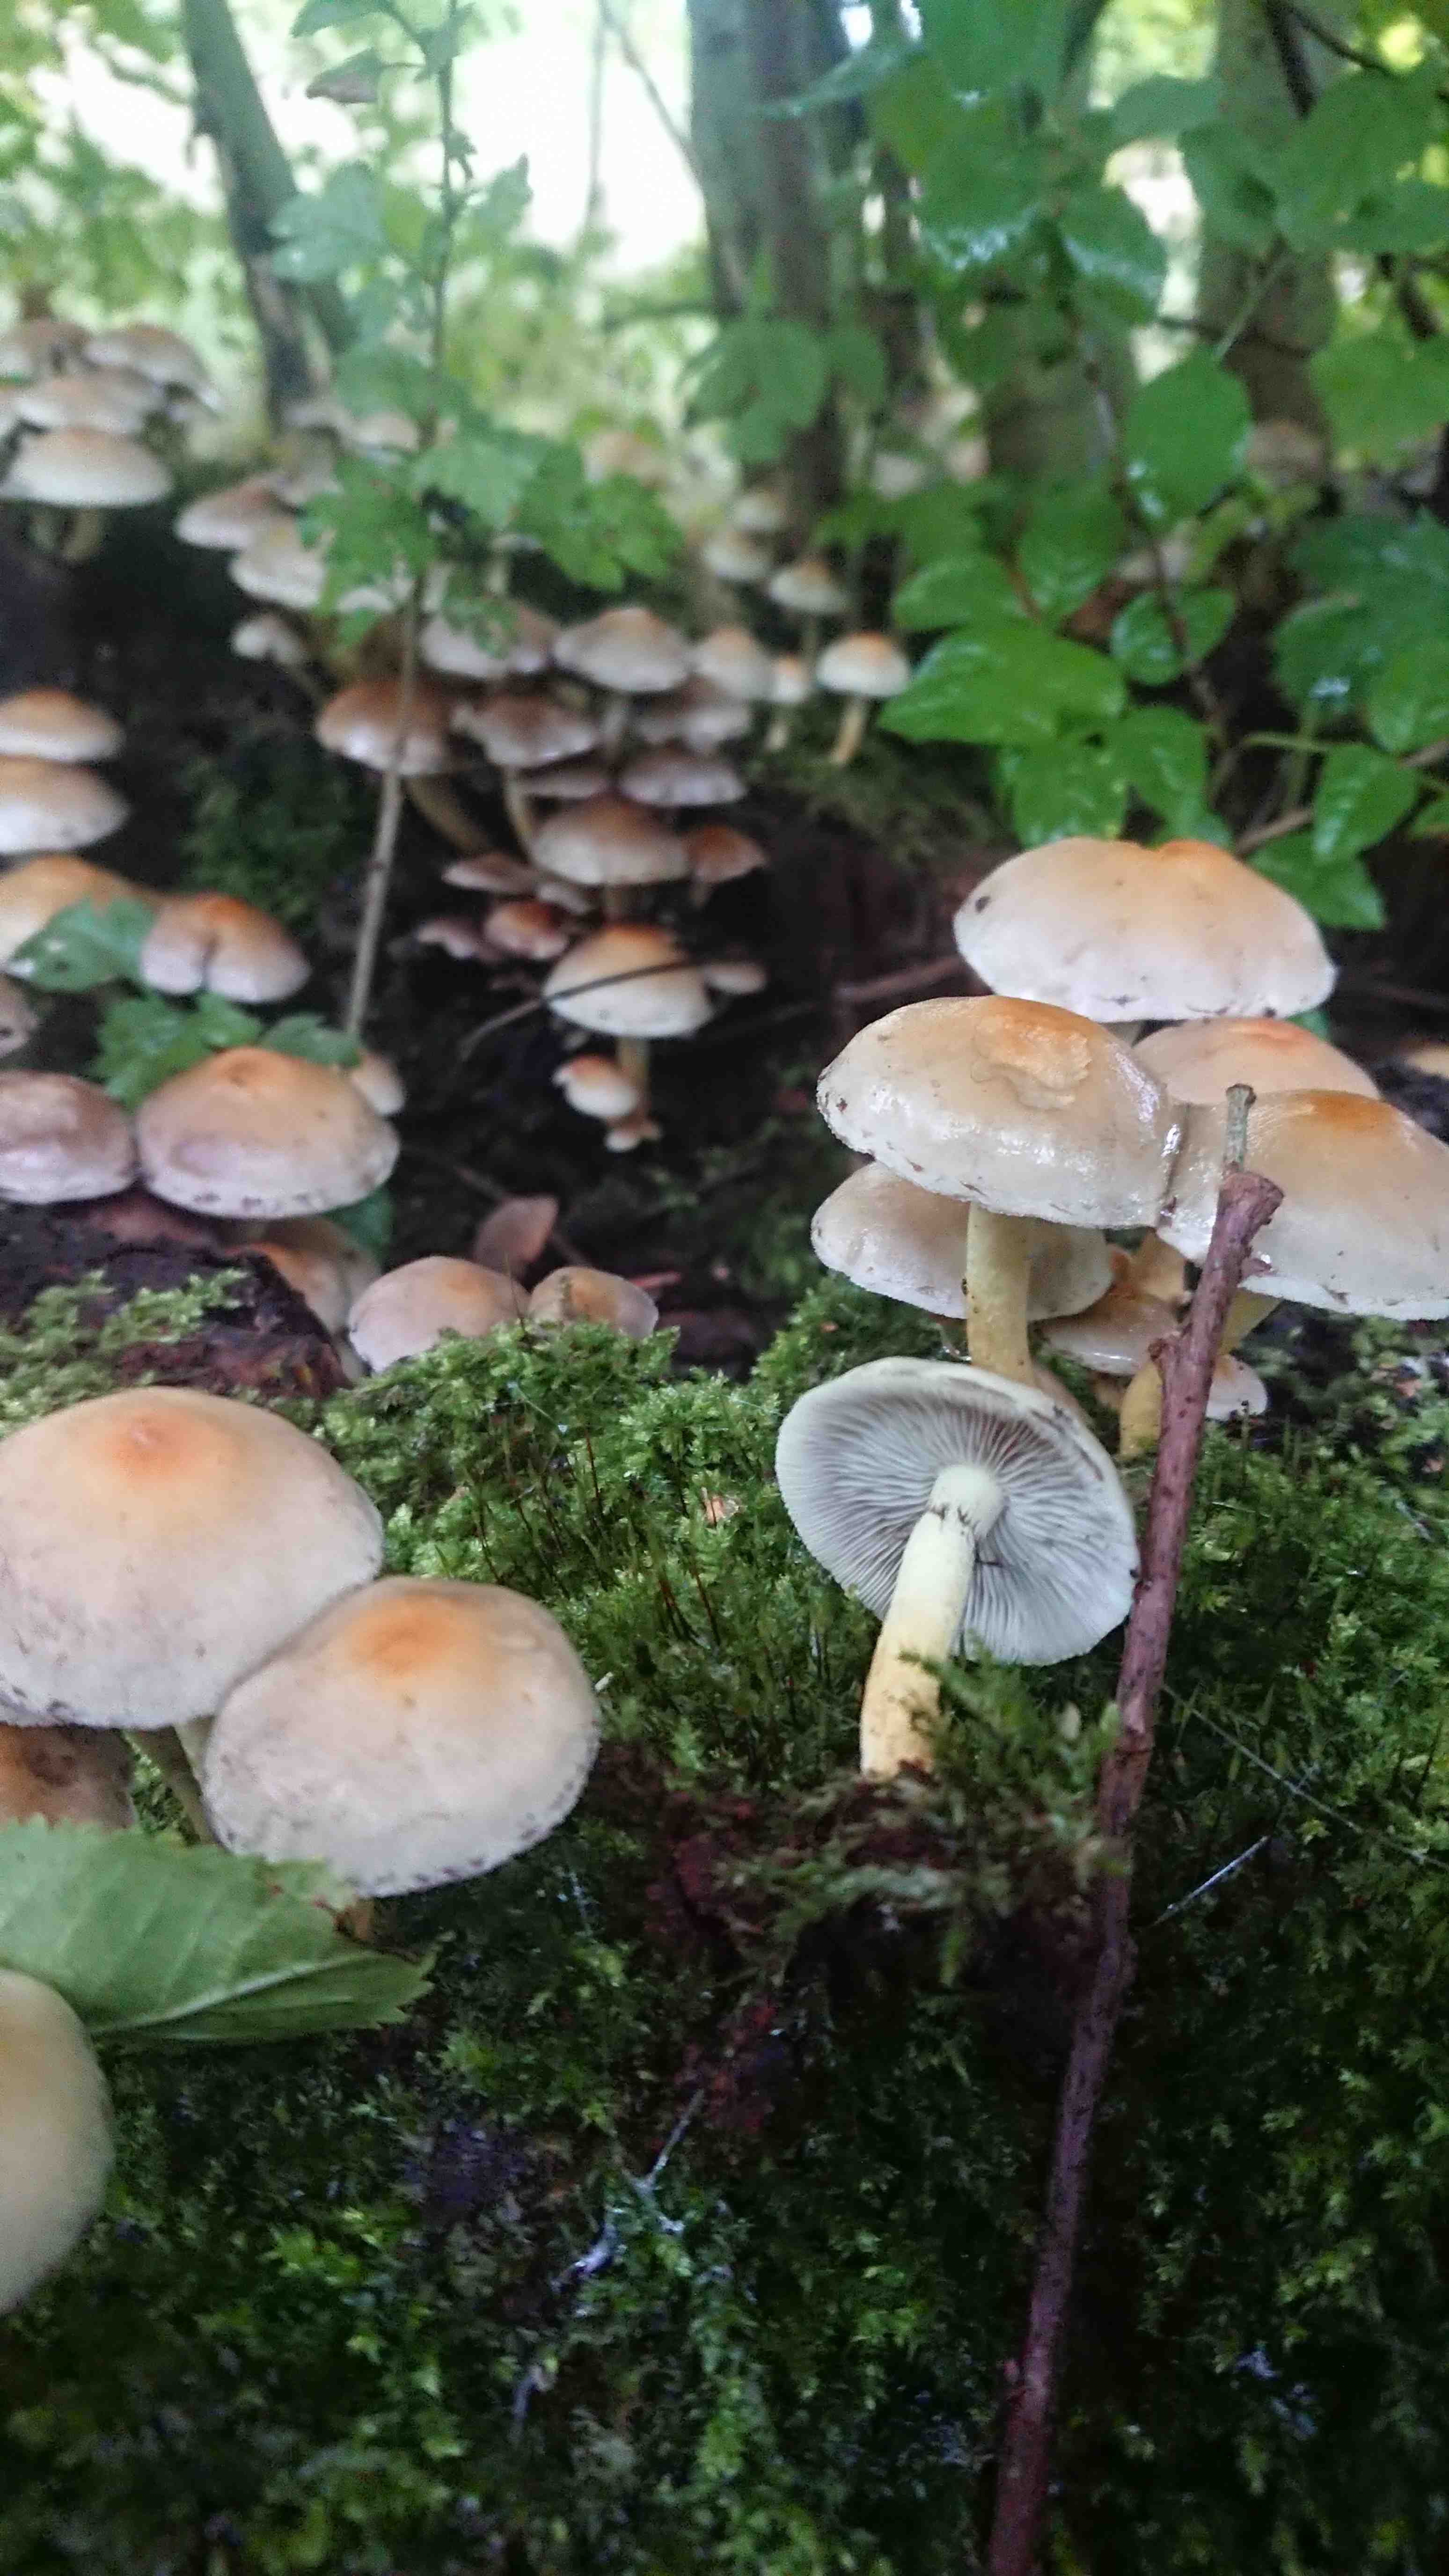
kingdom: Fungi
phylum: Basidiomycota
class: Agaricomycetes
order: Agaricales
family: Strophariaceae
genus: Hypholoma
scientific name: Hypholoma lateritium
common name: teglrød svovlhat
